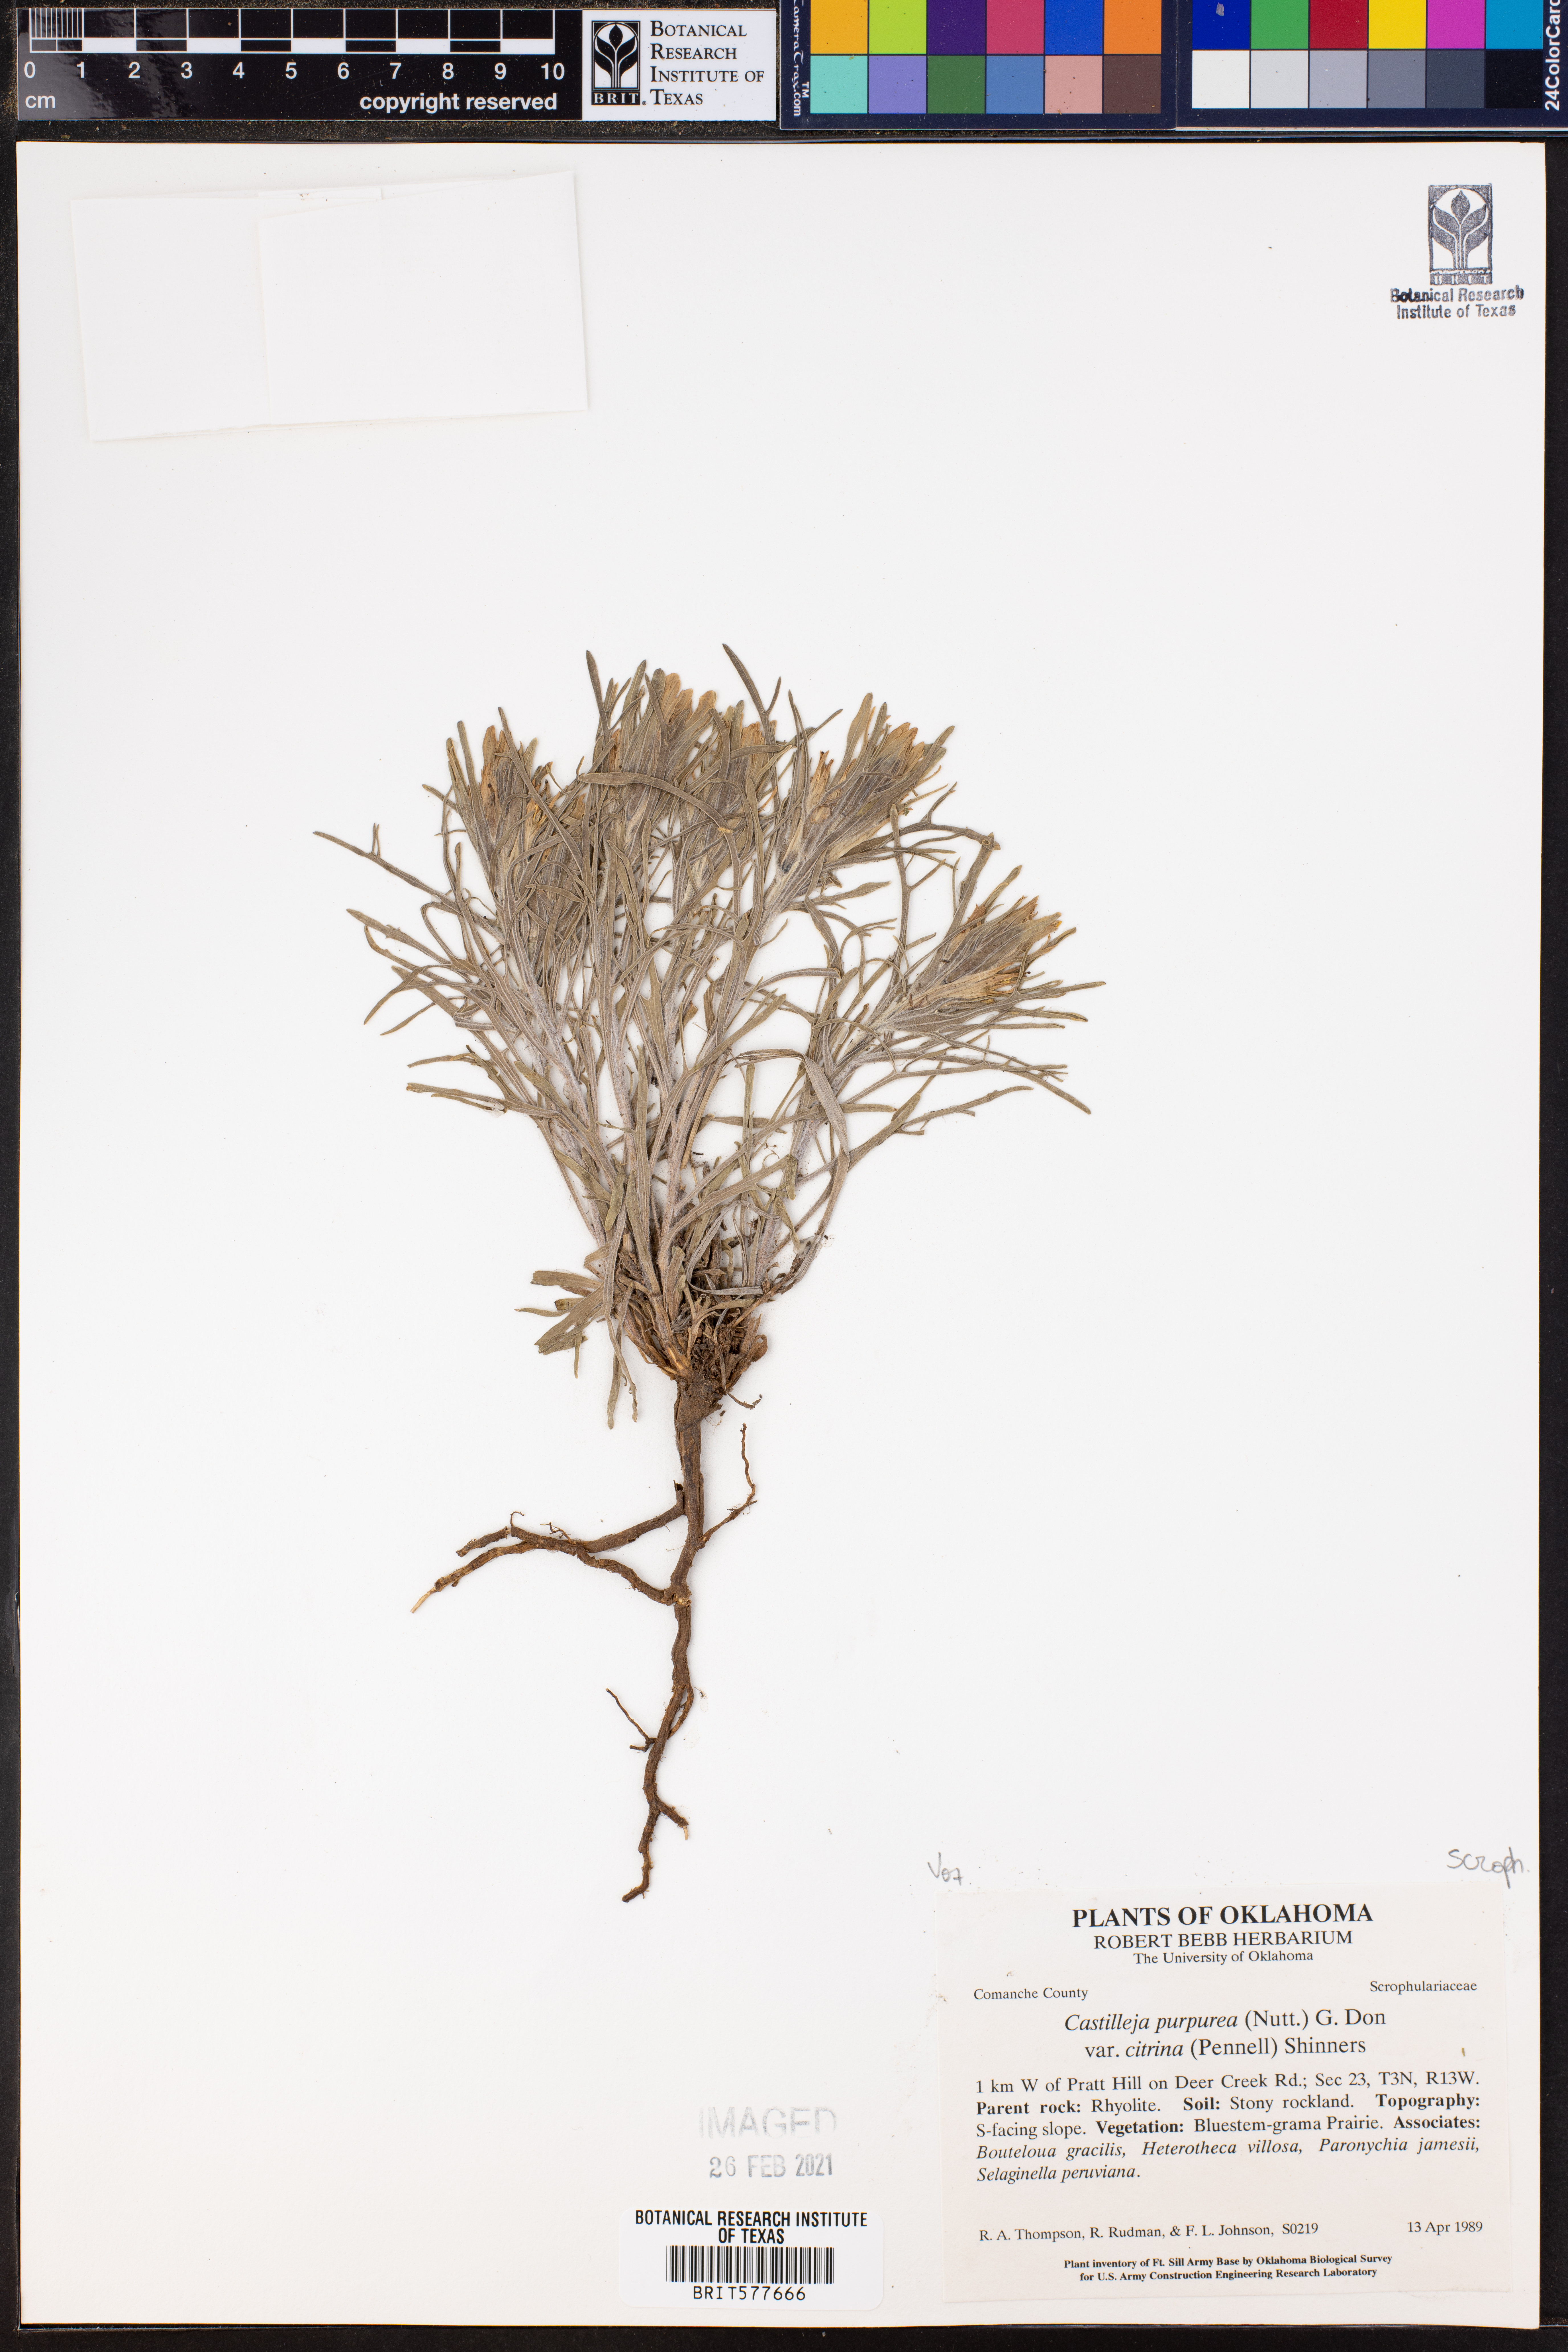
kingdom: Plantae
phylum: Tracheophyta
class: Magnoliopsida
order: Lamiales
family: Orobanchaceae
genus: Castilleja
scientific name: Castilleja citrina
